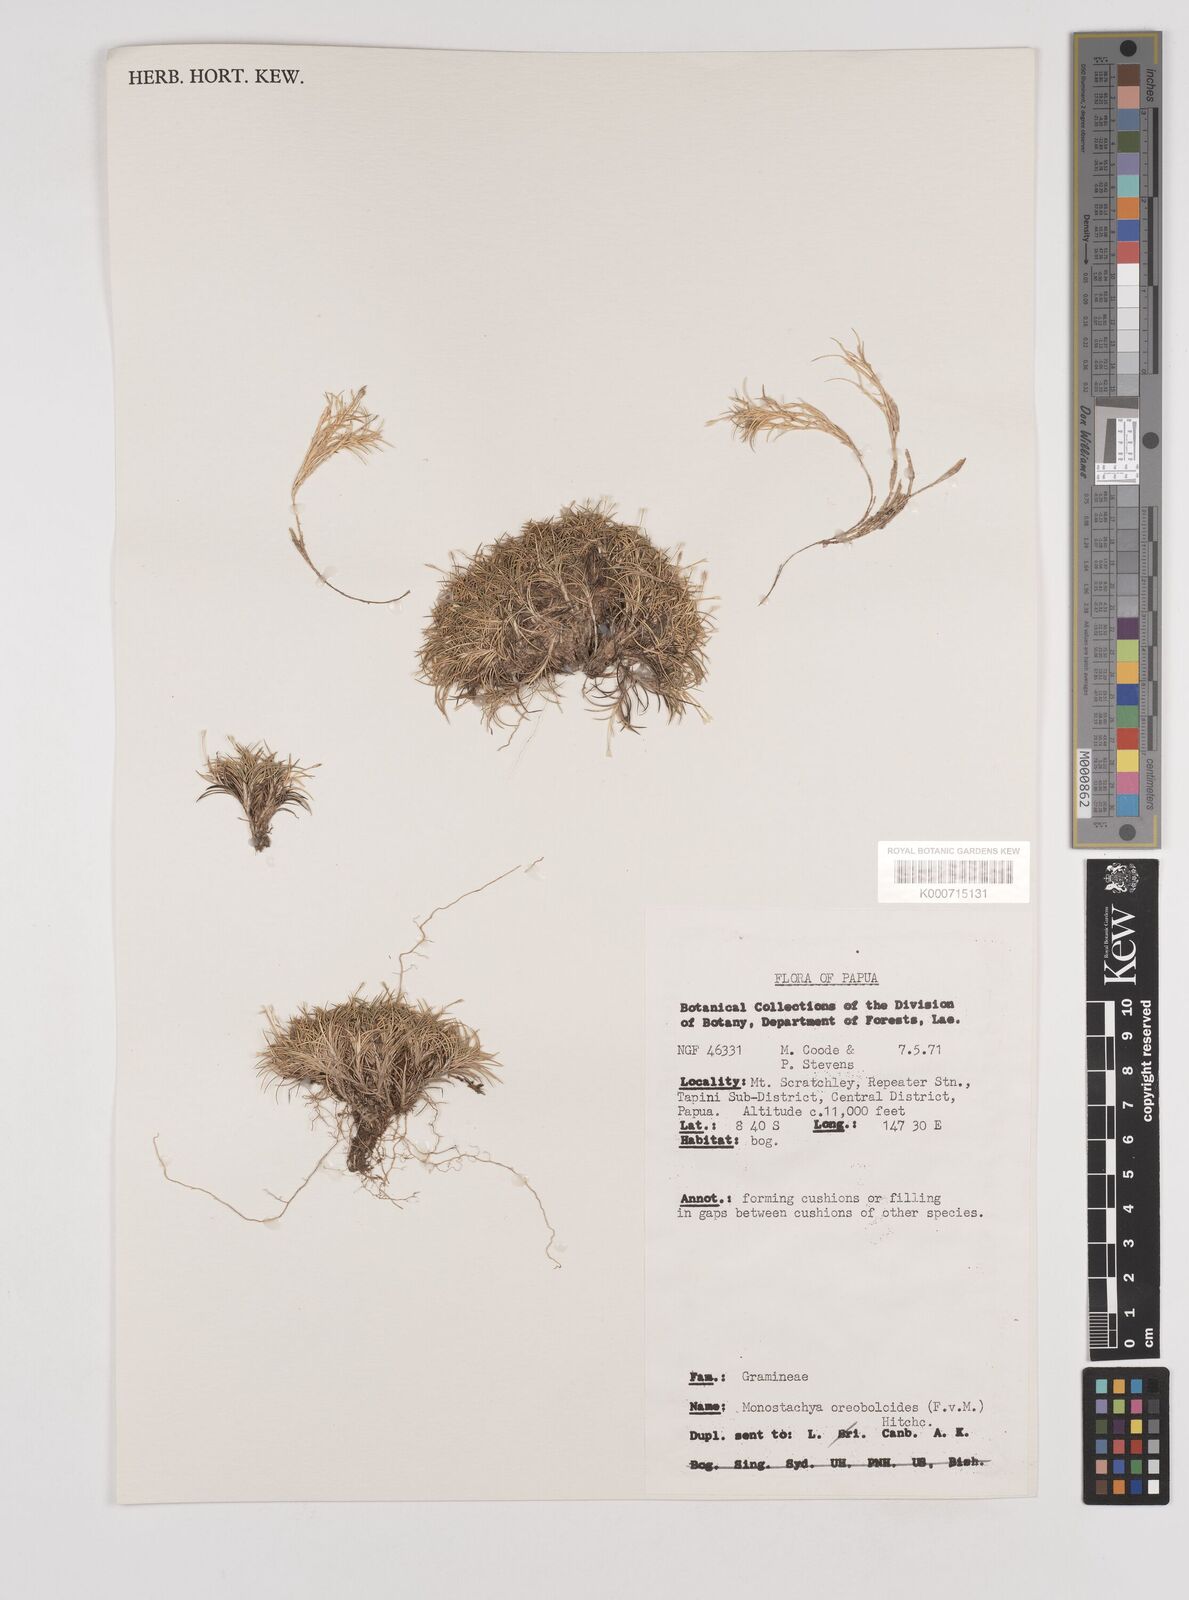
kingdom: Plantae
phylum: Tracheophyta
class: Liliopsida
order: Poales
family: Poaceae
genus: Rytidosperma
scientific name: Rytidosperma oreoboloides
